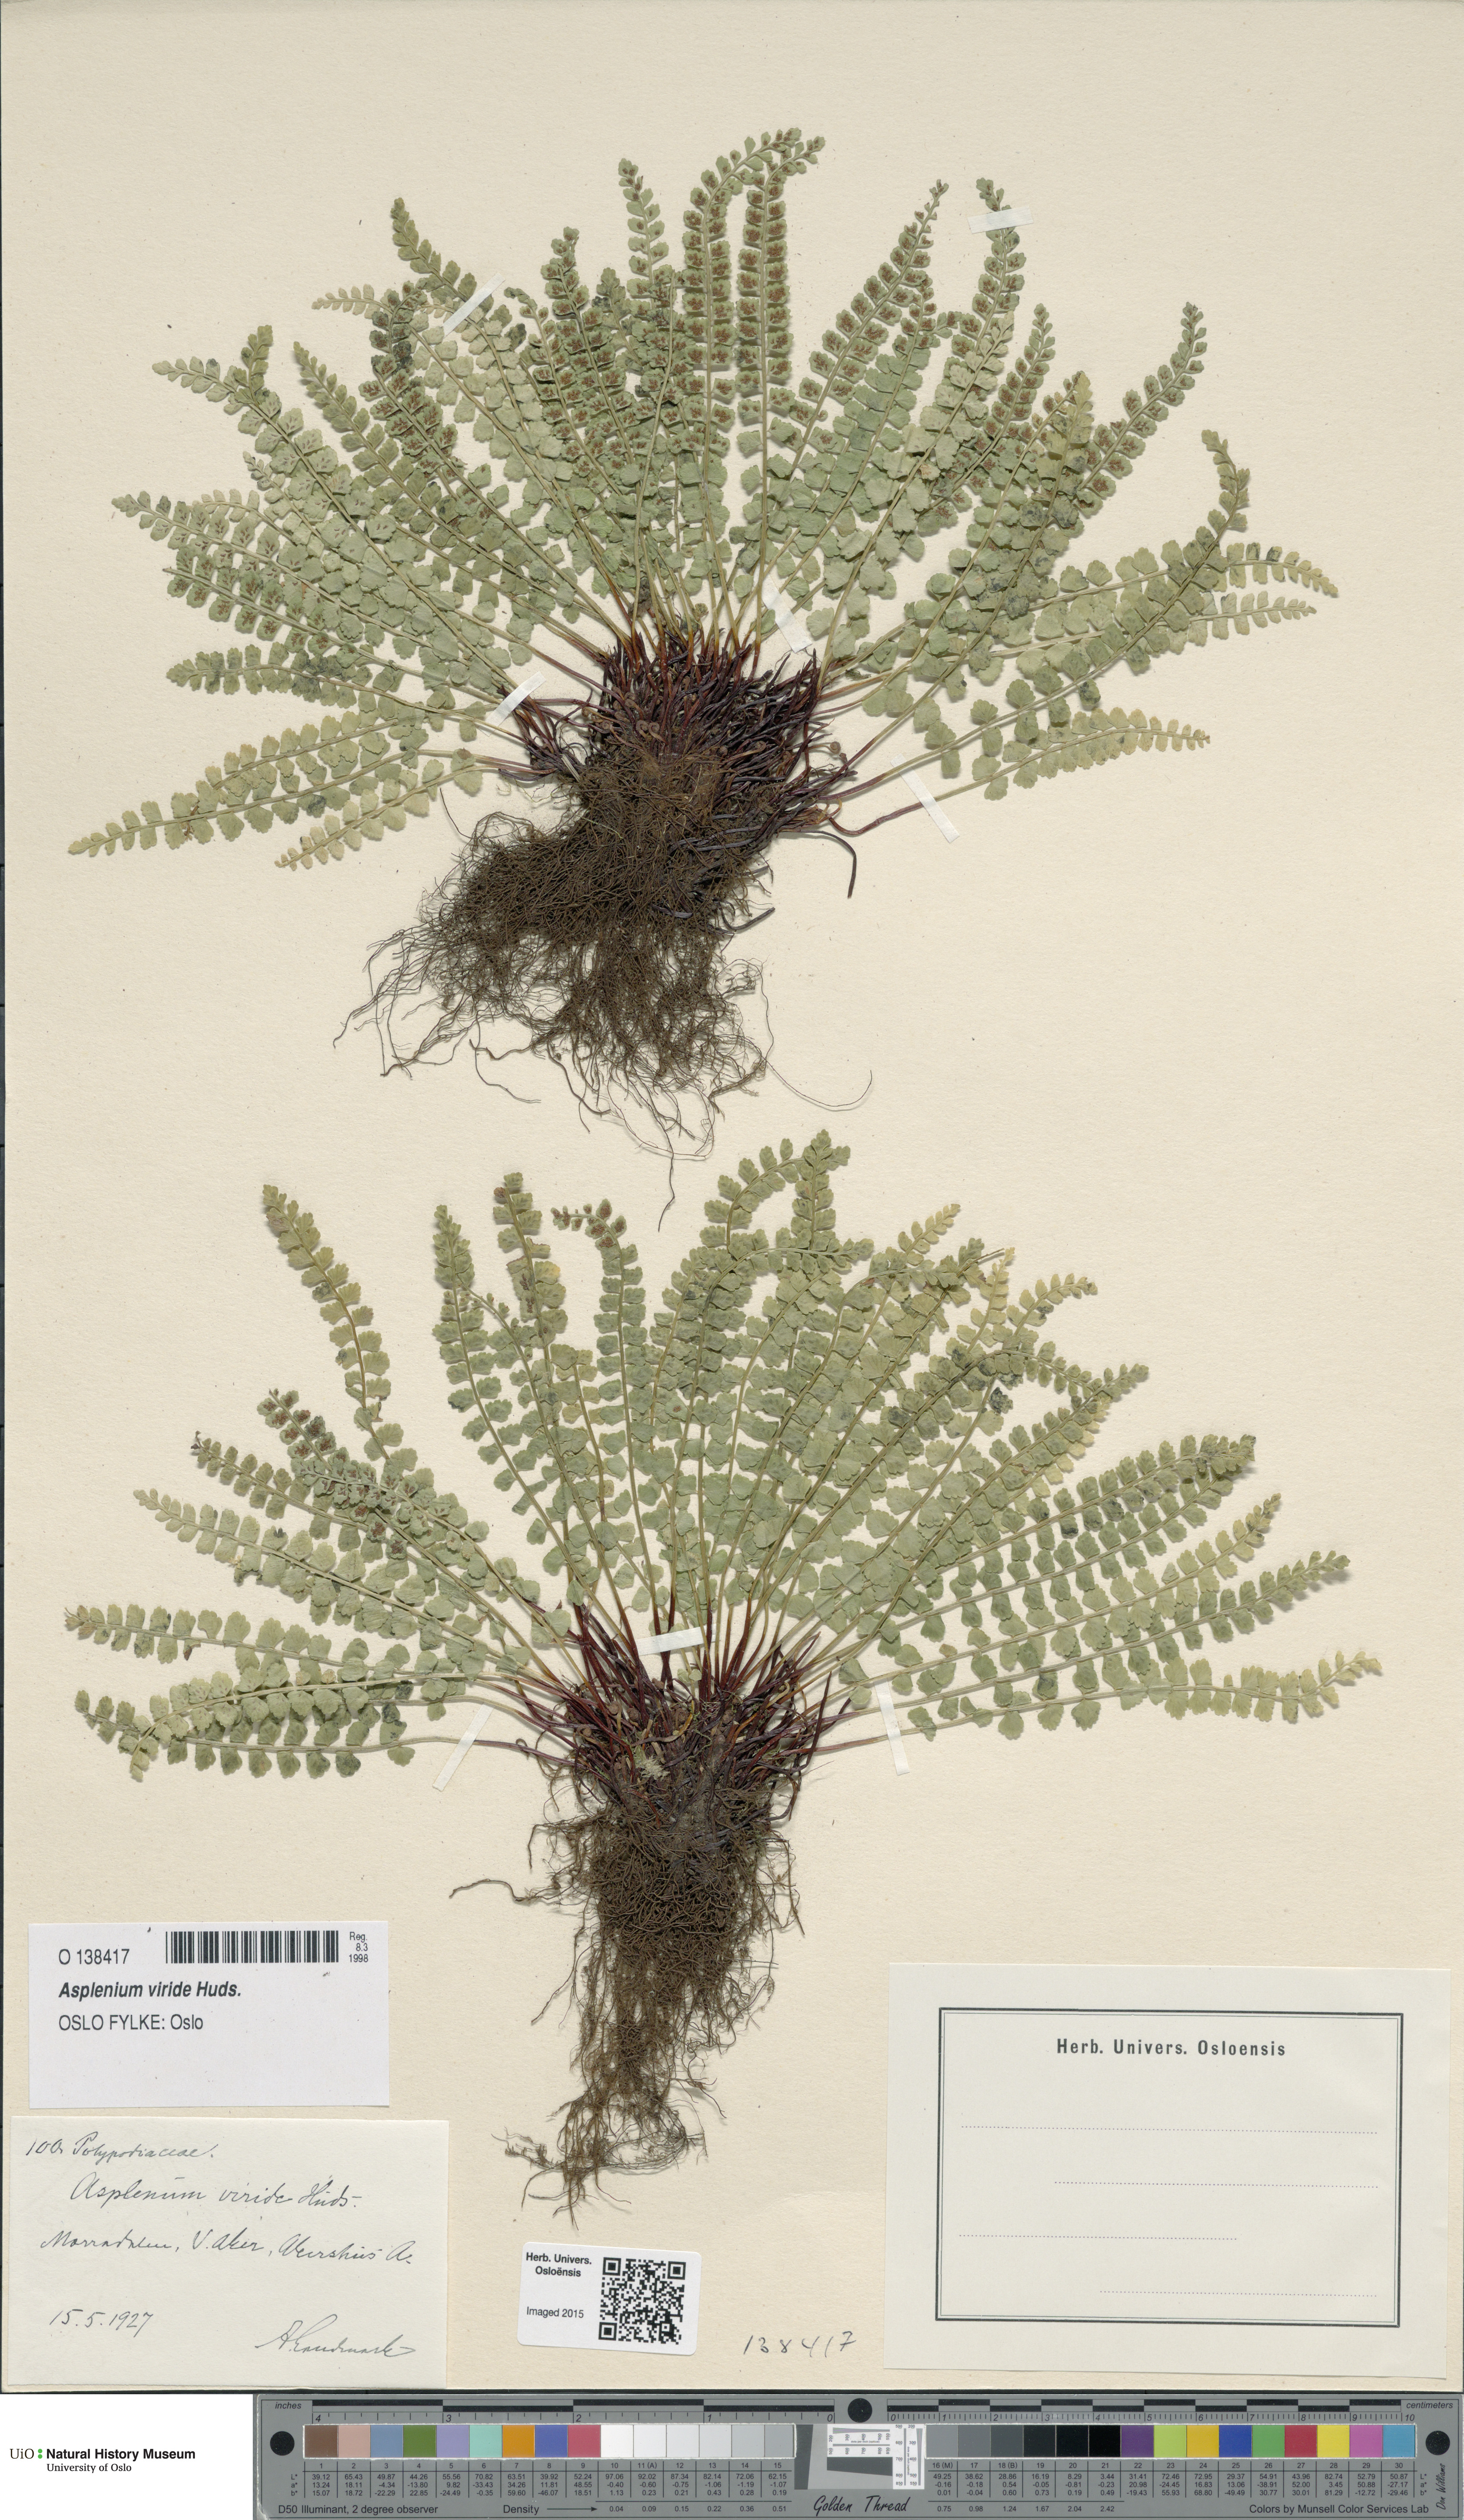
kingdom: Plantae
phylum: Tracheophyta
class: Polypodiopsida
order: Polypodiales
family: Aspleniaceae
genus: Asplenium
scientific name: Asplenium viride
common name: Green spleenwort
